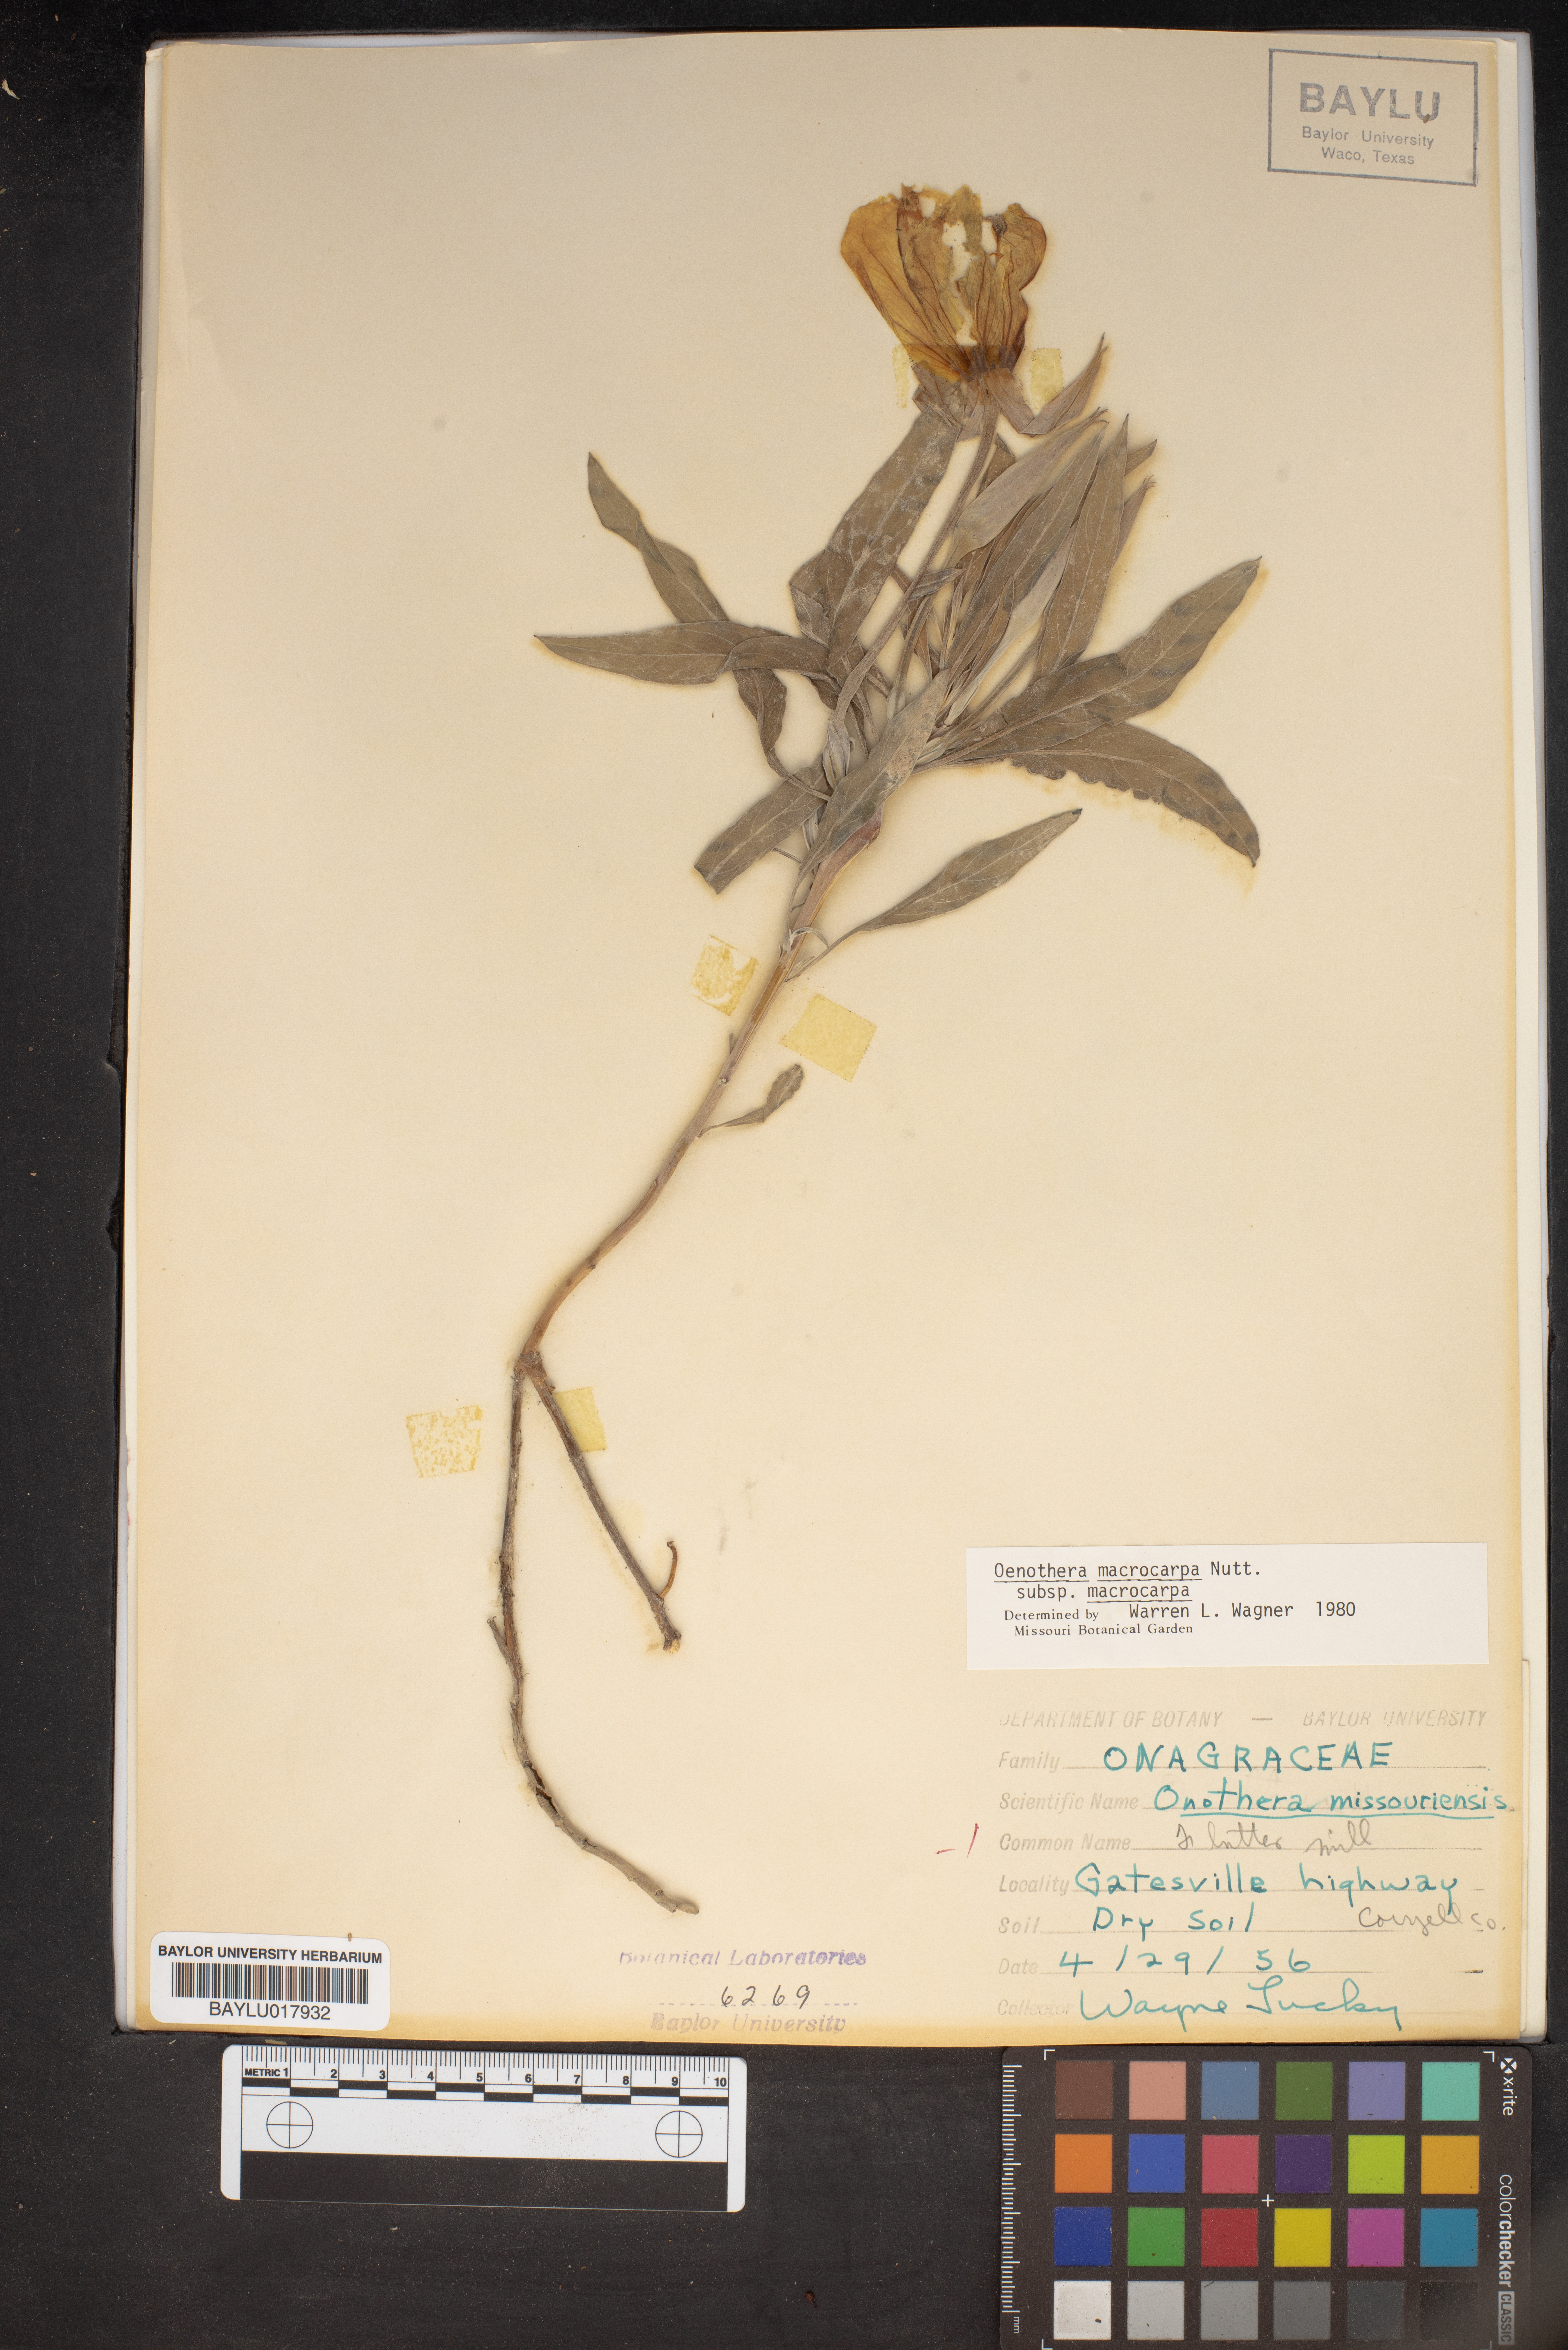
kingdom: Plantae
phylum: Tracheophyta
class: Magnoliopsida
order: Myrtales
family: Onagraceae
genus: Oenothera
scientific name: Oenothera macrocarpa
